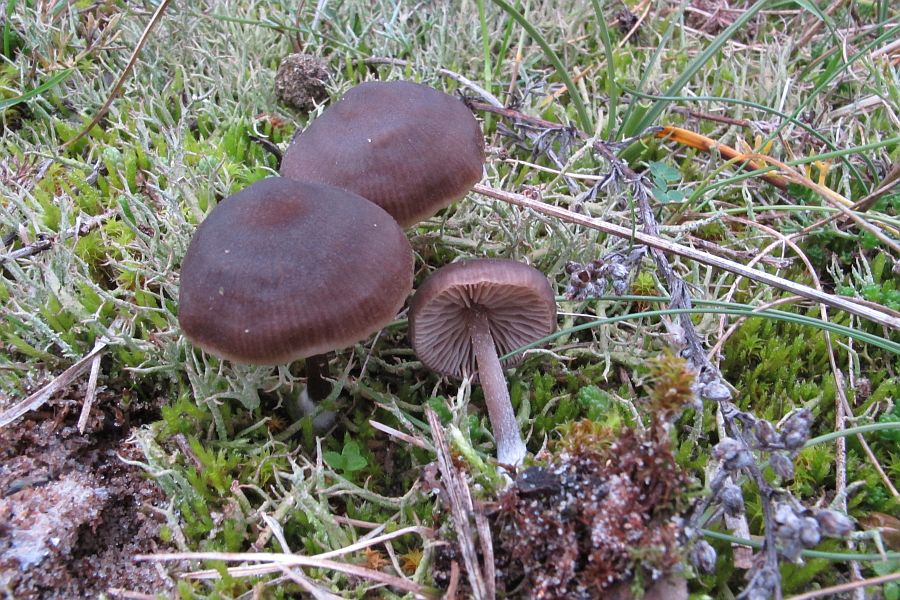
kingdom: Fungi
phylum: Basidiomycota
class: Agaricomycetes
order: Agaricales
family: Entolomataceae
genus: Entoloma
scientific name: Entoloma sericeum
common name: silkeglinsende rødblad
